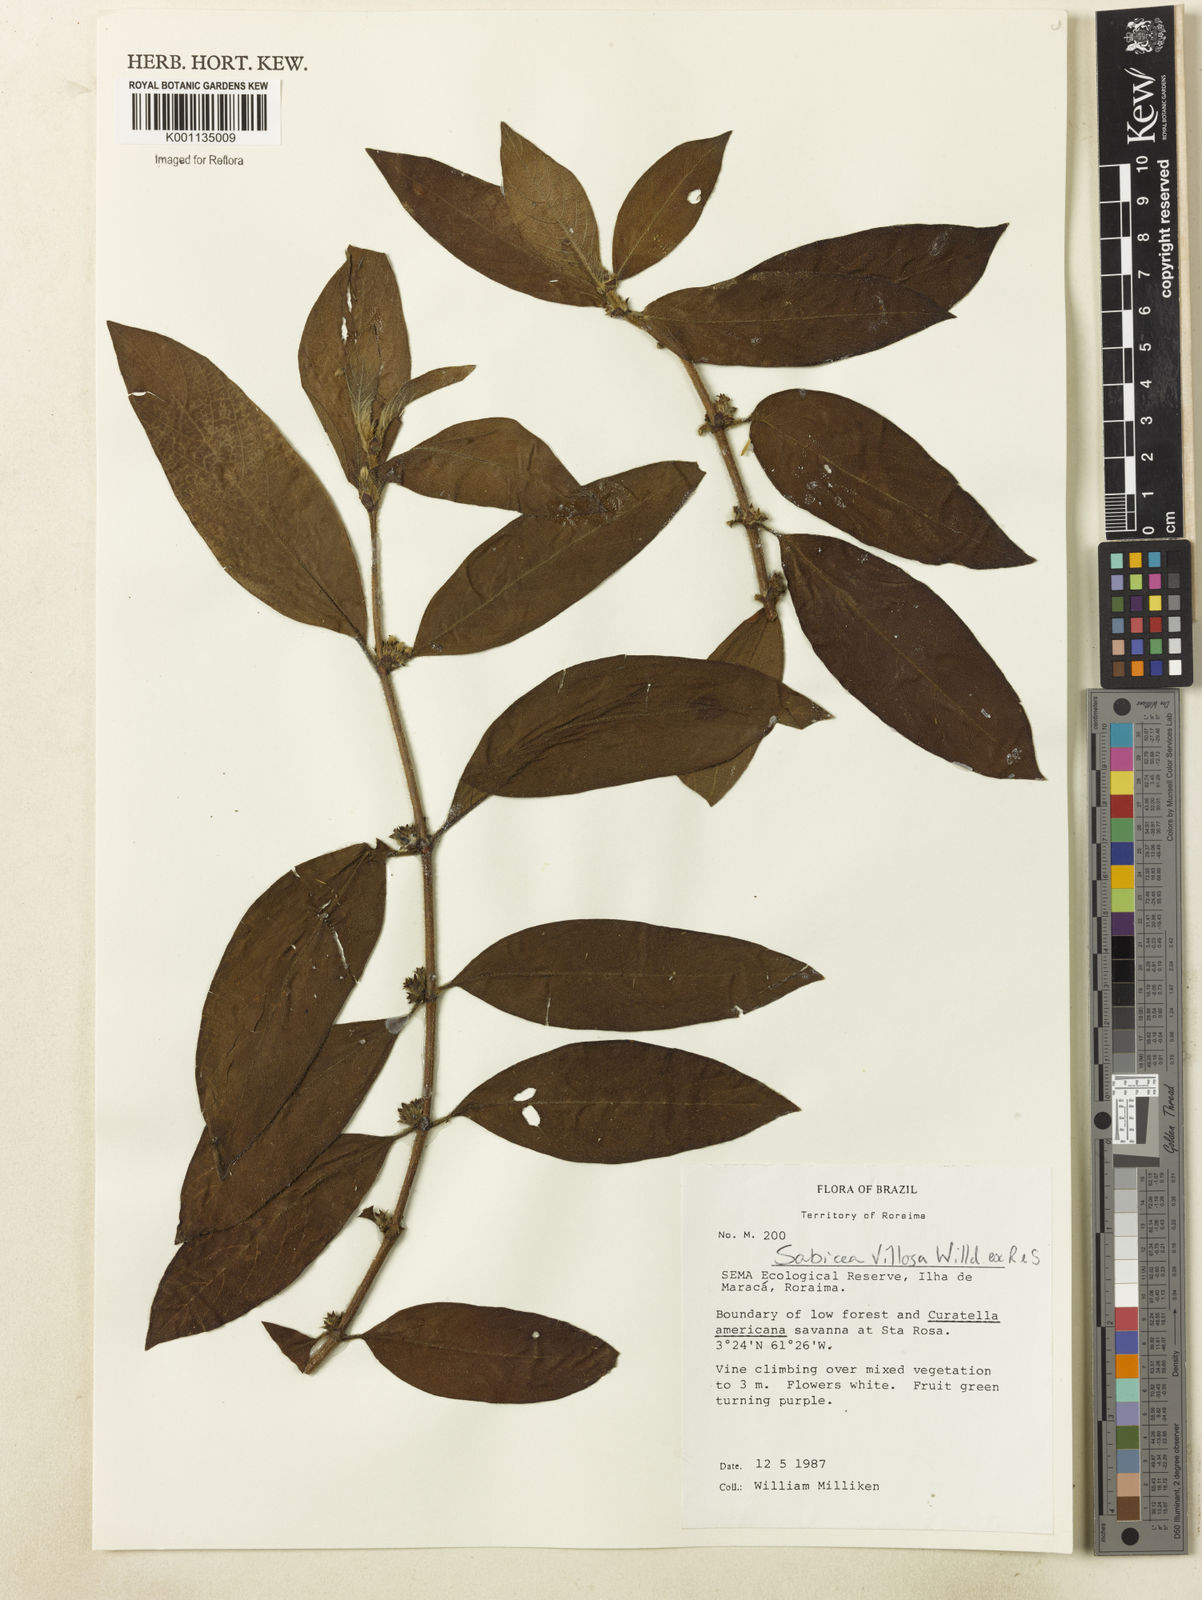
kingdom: Plantae
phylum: Tracheophyta
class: Magnoliopsida
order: Gentianales
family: Rubiaceae
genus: Sabicea
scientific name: Sabicea villosa
